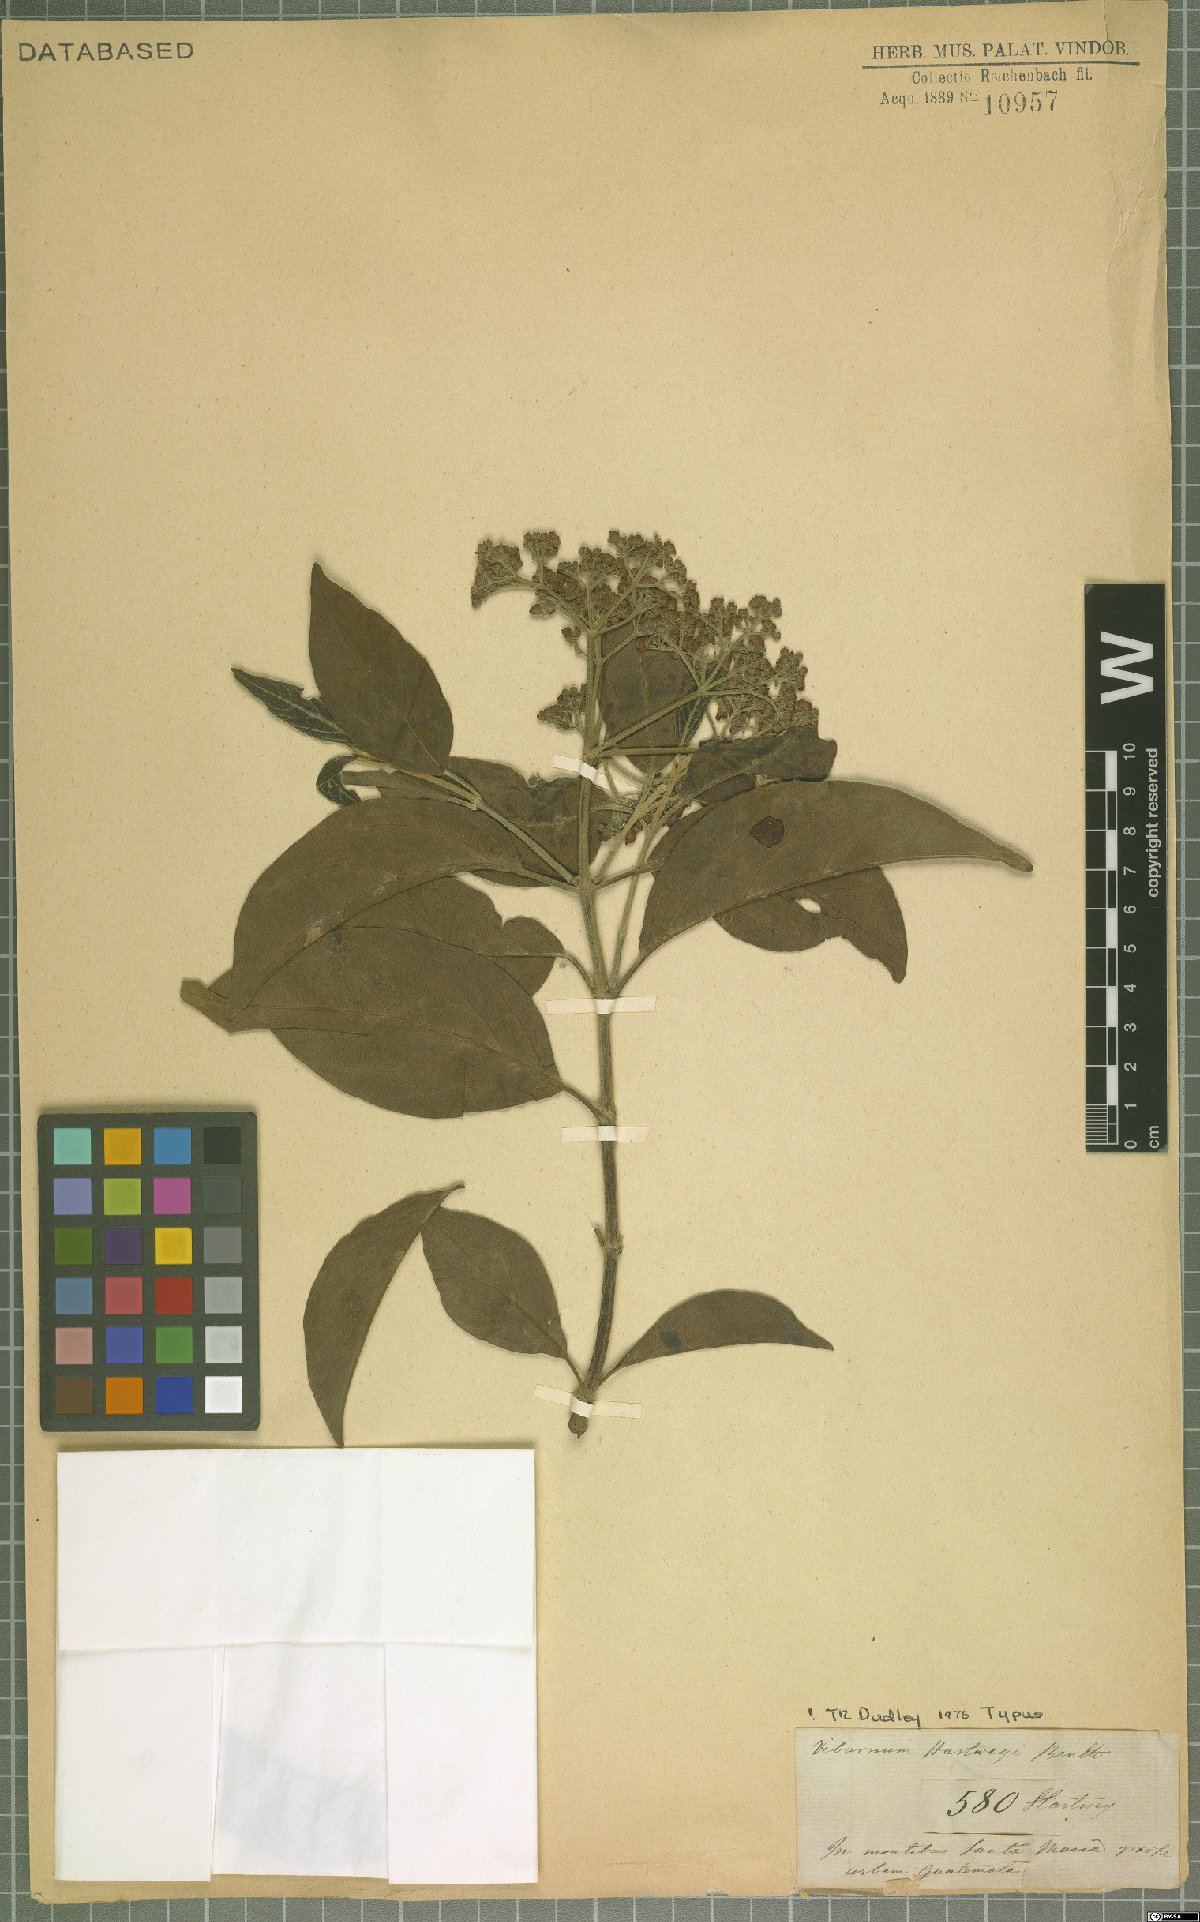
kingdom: Plantae
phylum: Tracheophyta
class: Magnoliopsida
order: Dipsacales
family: Viburnaceae
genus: Viburnum
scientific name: Viburnum hartwegii
